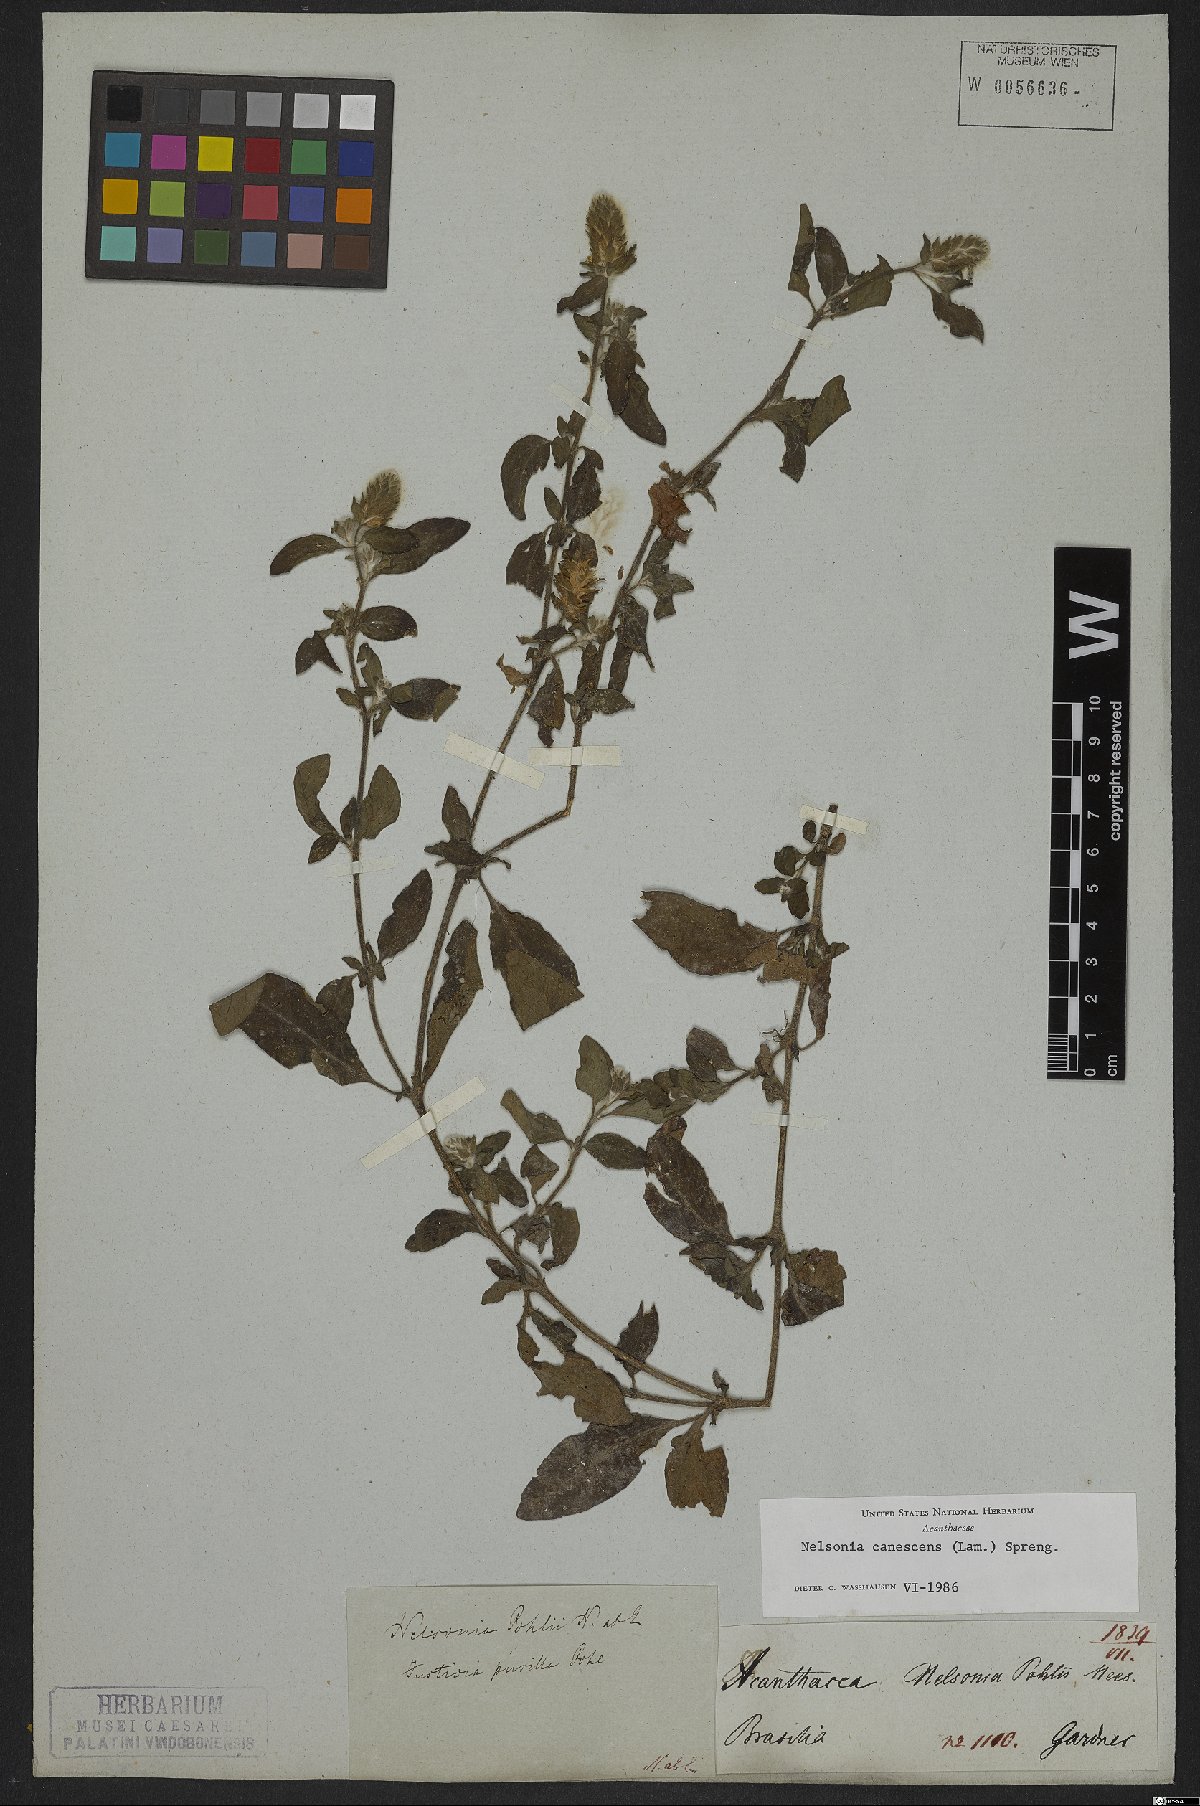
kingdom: Plantae
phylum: Tracheophyta
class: Magnoliopsida
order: Lamiales
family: Acanthaceae
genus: Nelsonia
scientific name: Nelsonia canescens
